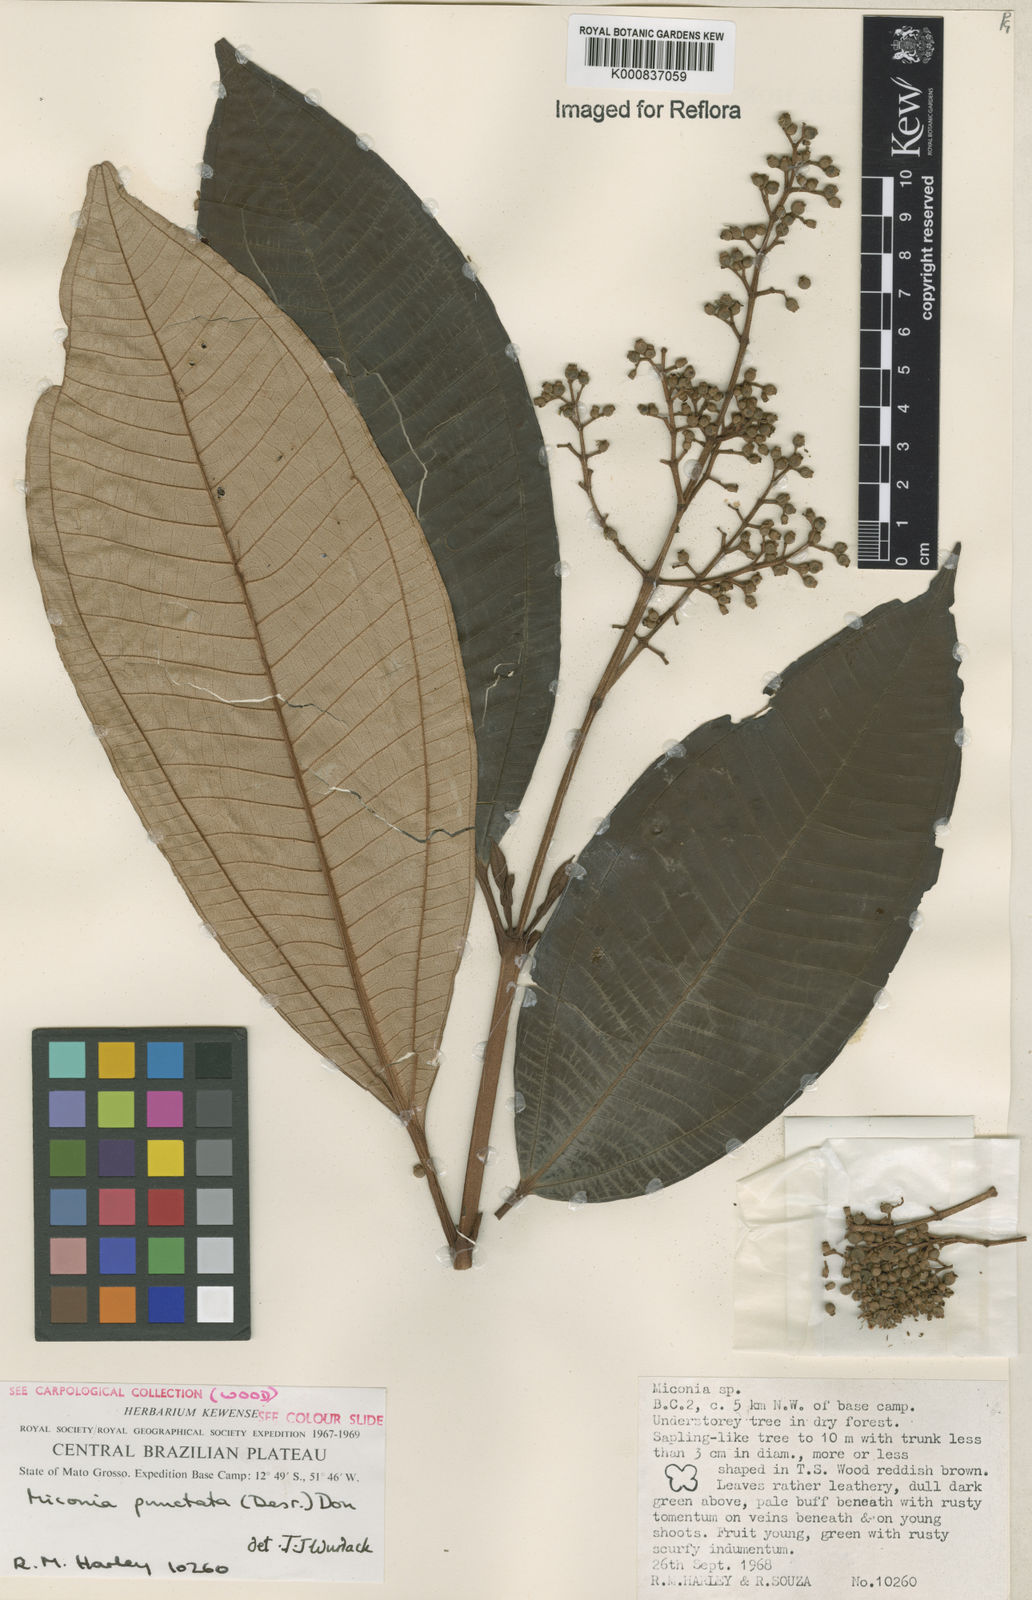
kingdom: Plantae
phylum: Tracheophyta
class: Magnoliopsida
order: Myrtales
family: Melastomataceae
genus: Miconia
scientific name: Miconia punctata
